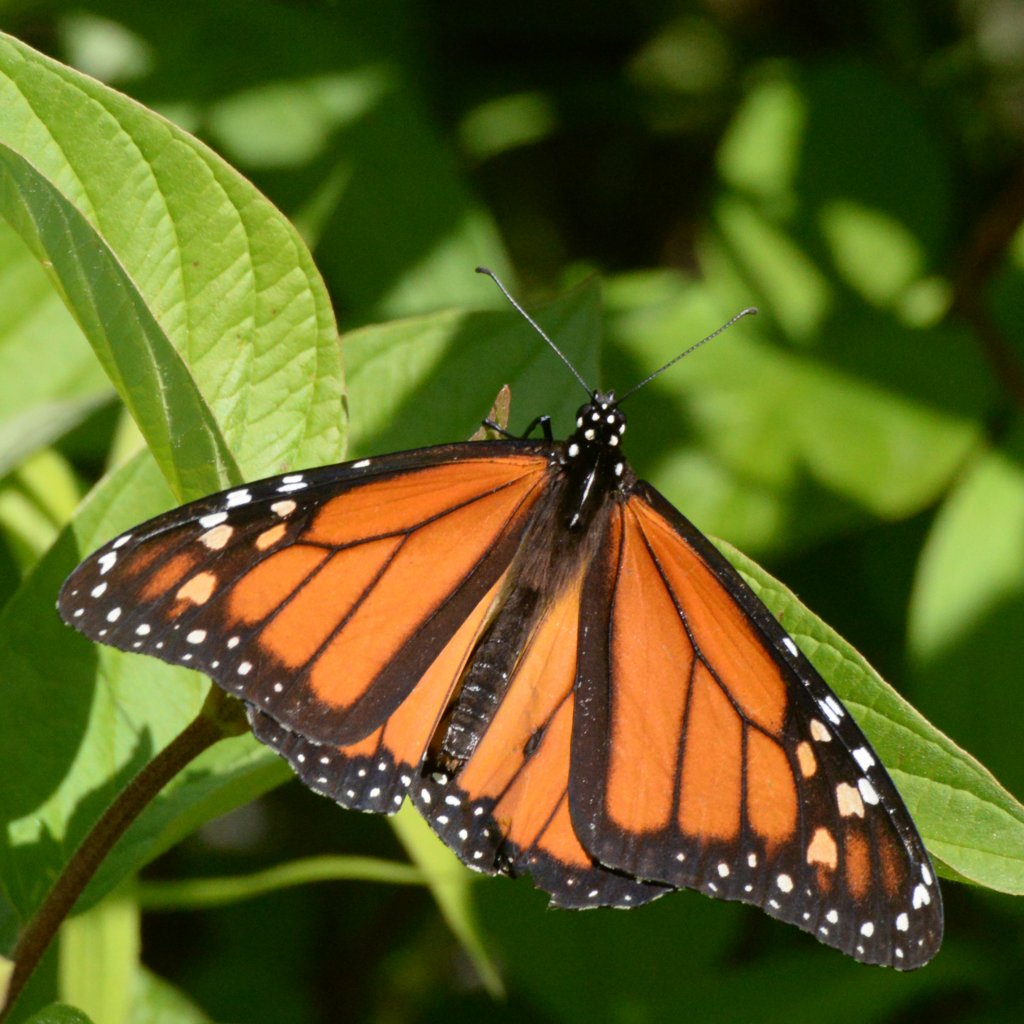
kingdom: Animalia
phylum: Arthropoda
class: Insecta
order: Lepidoptera
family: Nymphalidae
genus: Danaus
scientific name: Danaus plexippus
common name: Monarch
